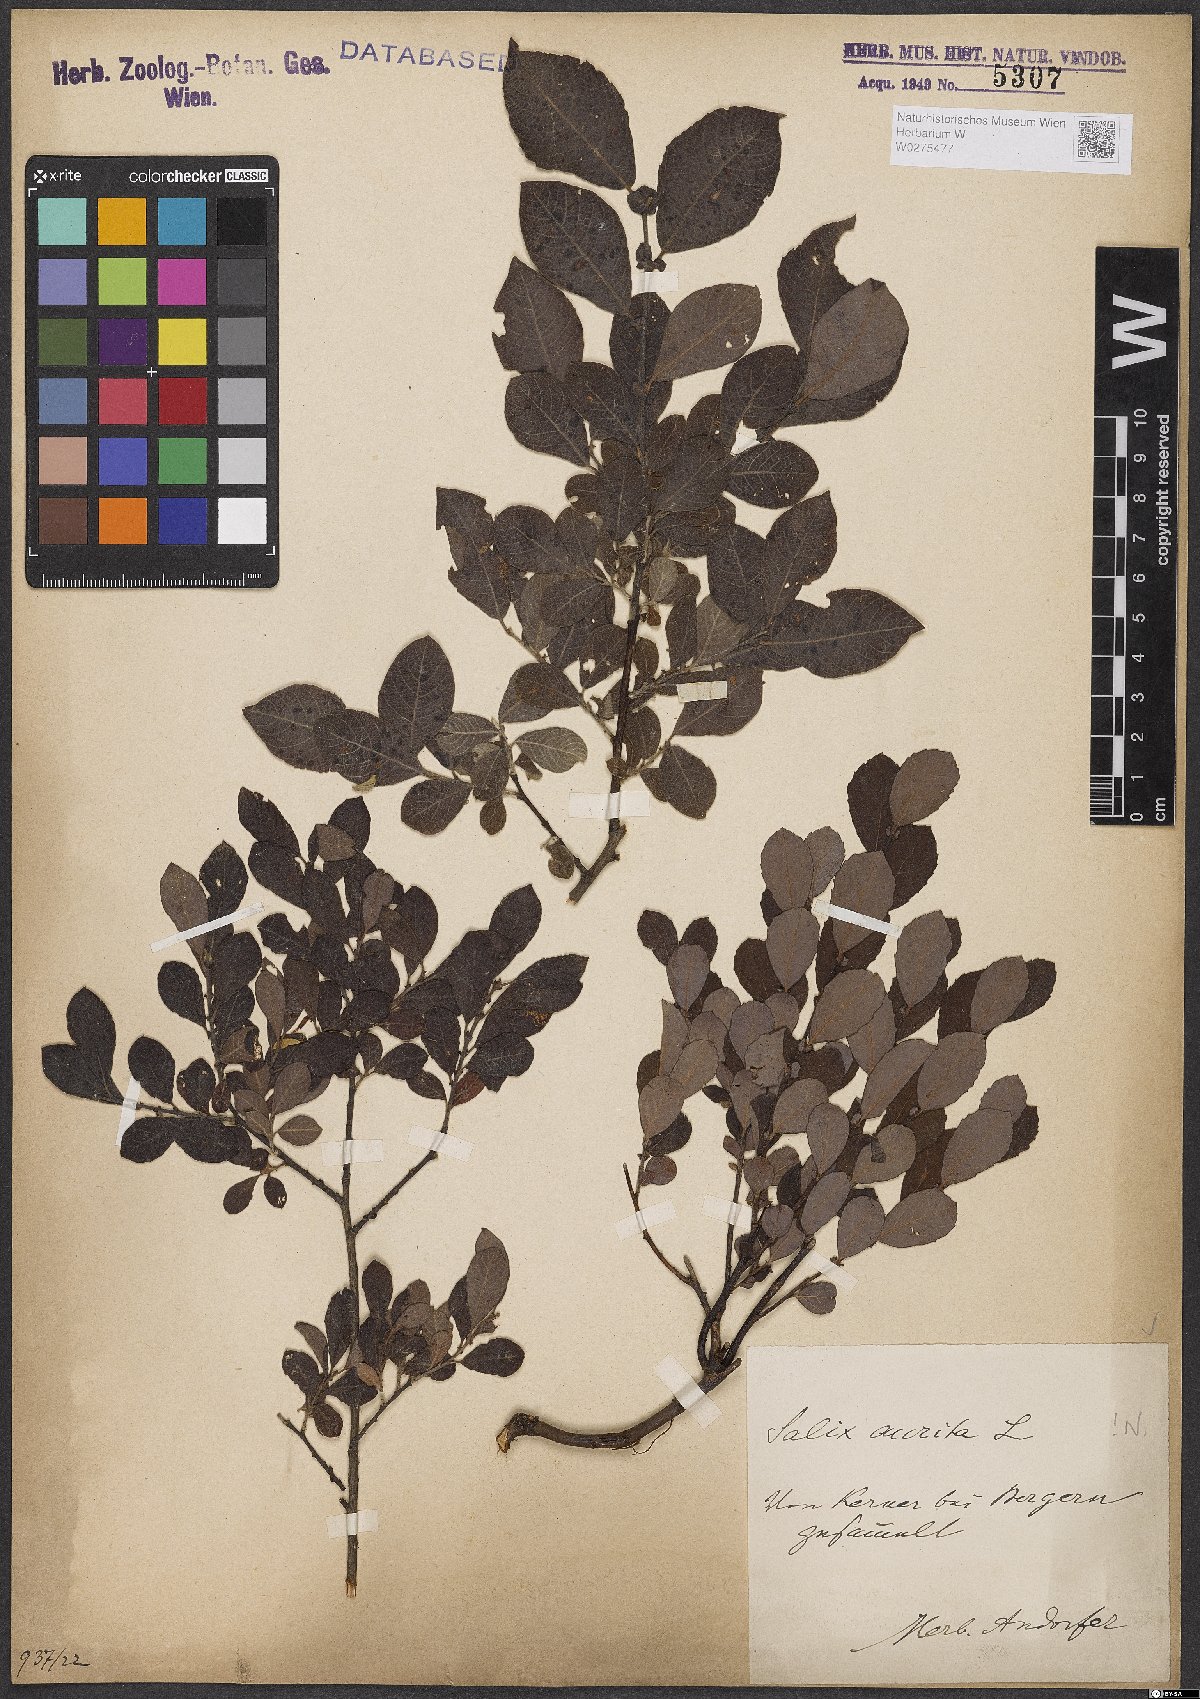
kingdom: Plantae
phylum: Tracheophyta
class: Magnoliopsida
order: Malpighiales
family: Salicaceae
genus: Salix
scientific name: Salix aurita
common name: Eared willow
